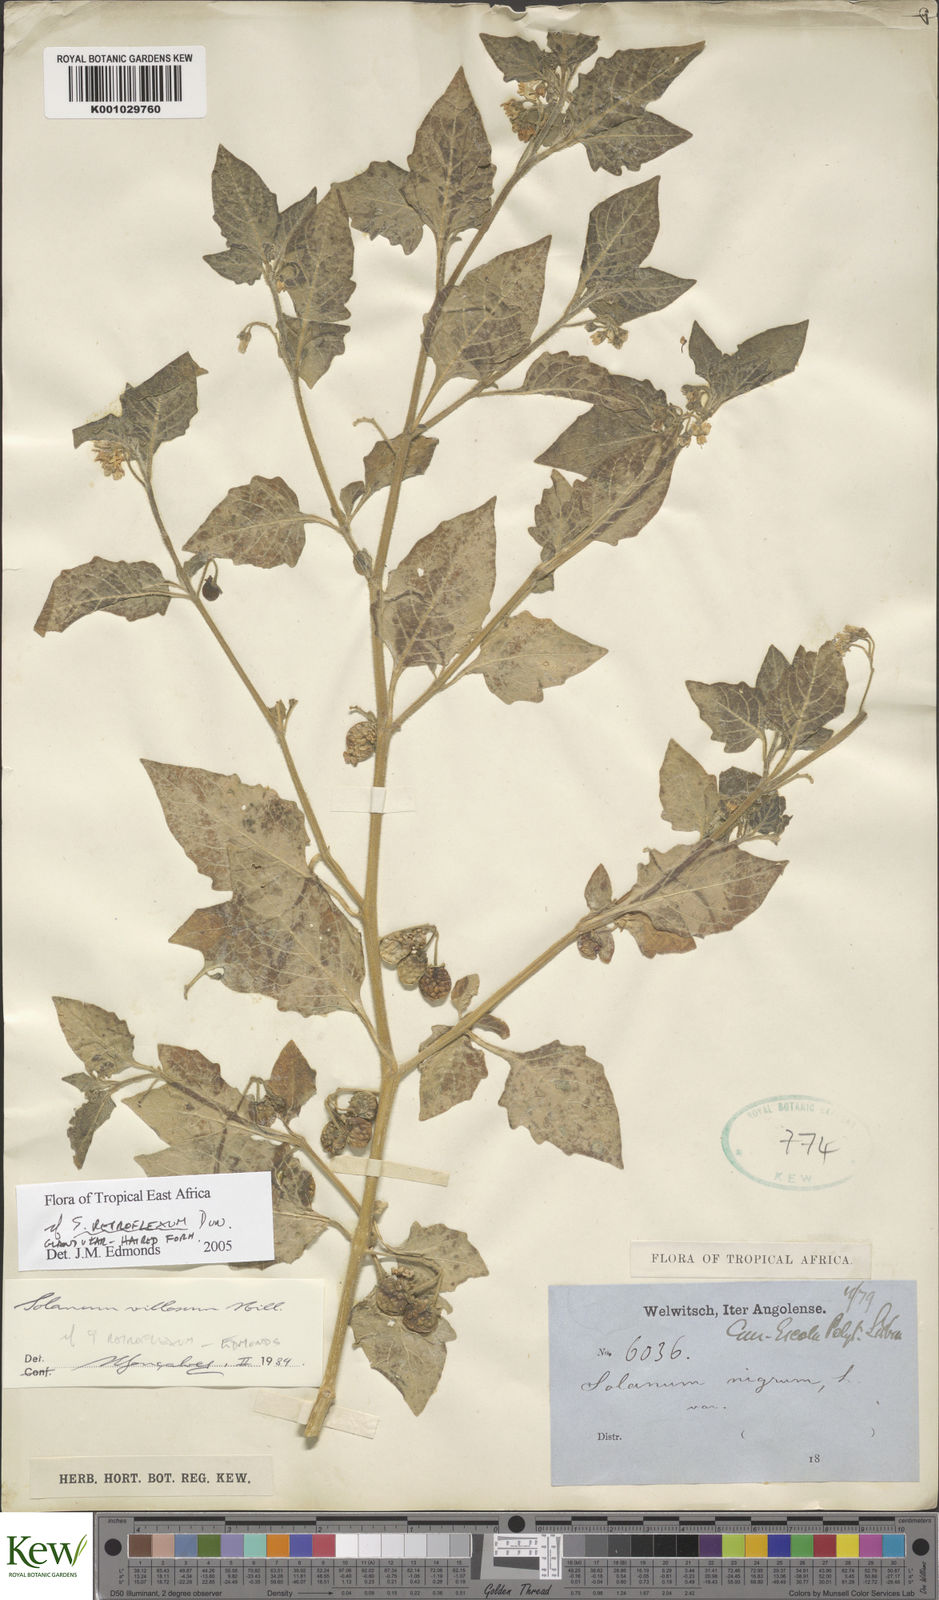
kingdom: Plantae
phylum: Tracheophyta
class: Magnoliopsida
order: Solanales
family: Solanaceae
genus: Solanum
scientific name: Solanum retroflexum
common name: Wonderberry
